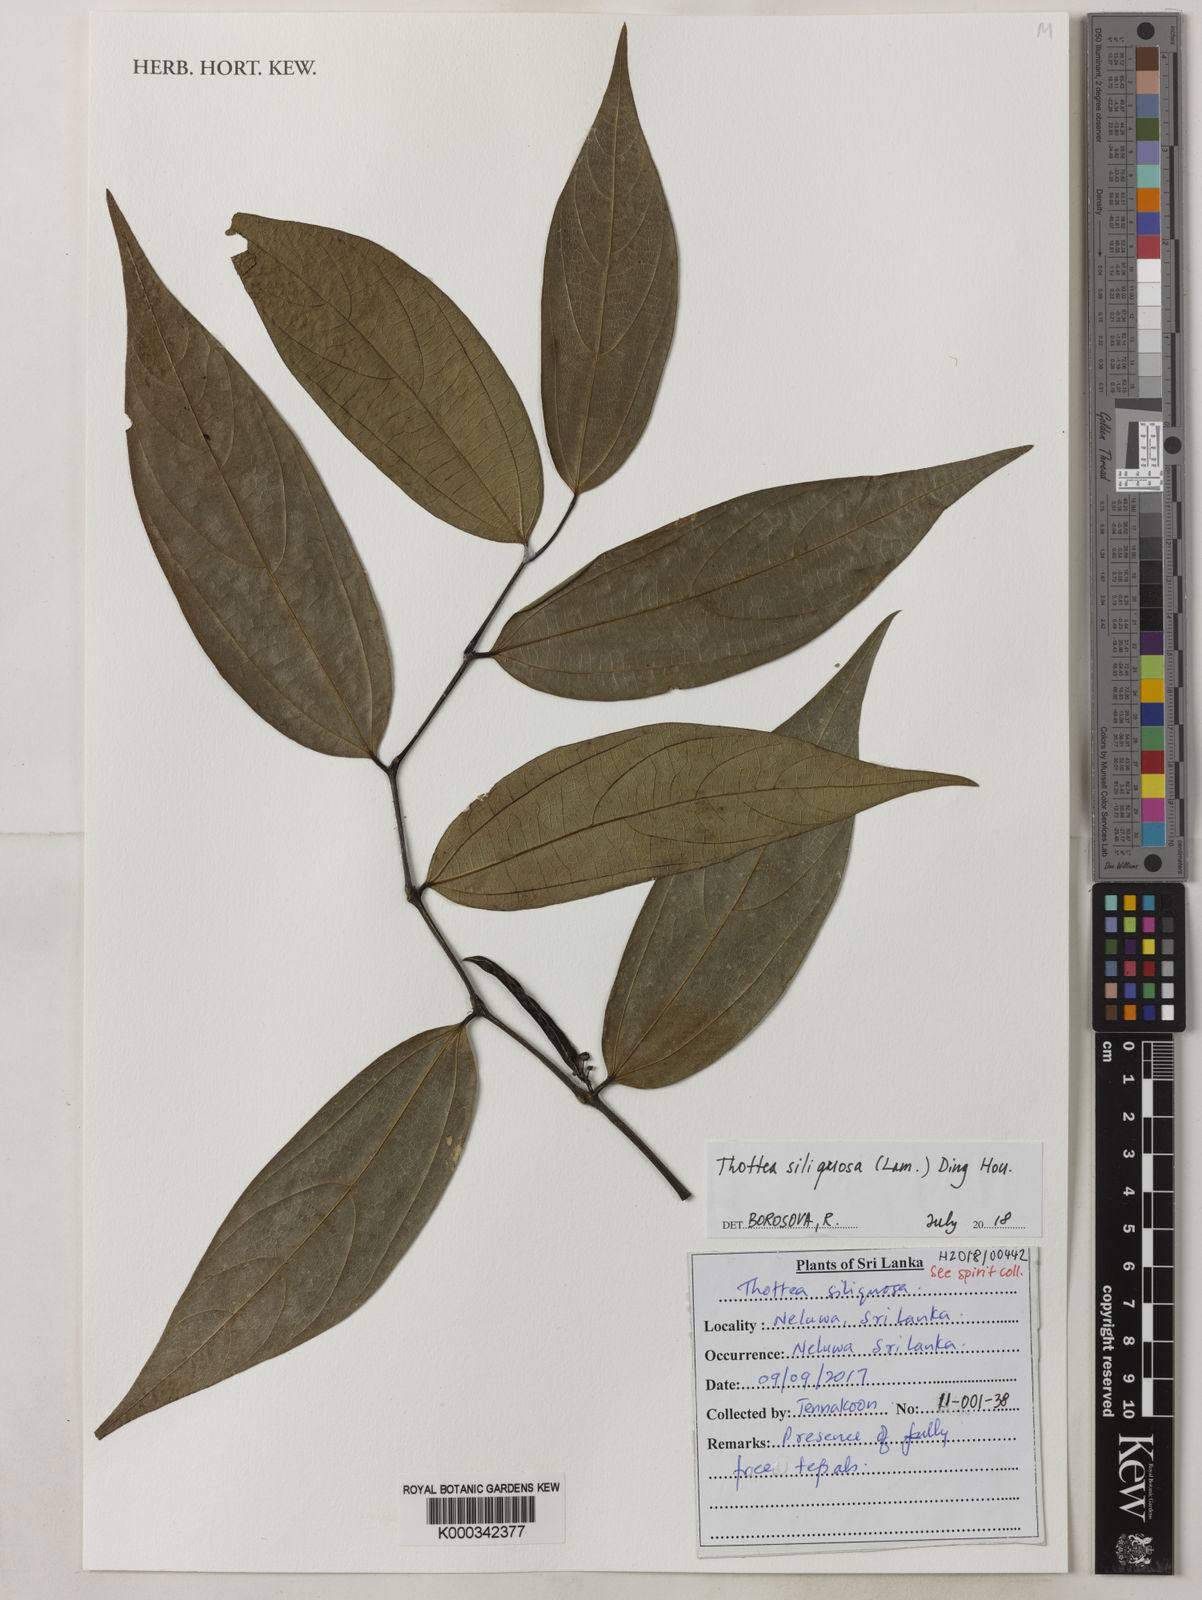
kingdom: Plantae
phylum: Tracheophyta
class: Magnoliopsida
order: Piperales
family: Aristolochiaceae
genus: Thottea
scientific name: Thottea siliquosa
